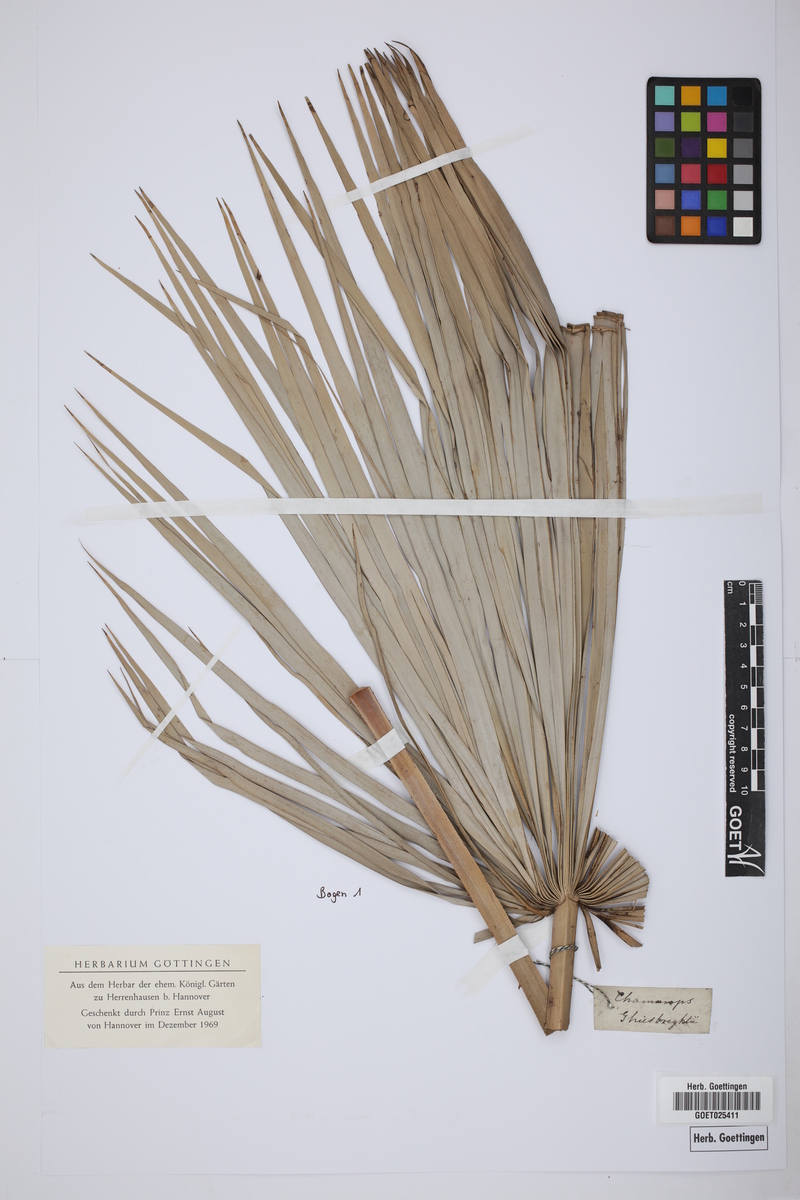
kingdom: Plantae
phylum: Tracheophyta
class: Liliopsida
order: Arecales
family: Arecaceae
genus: Chamaerops
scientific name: Chamaerops ghiesbreghtii
